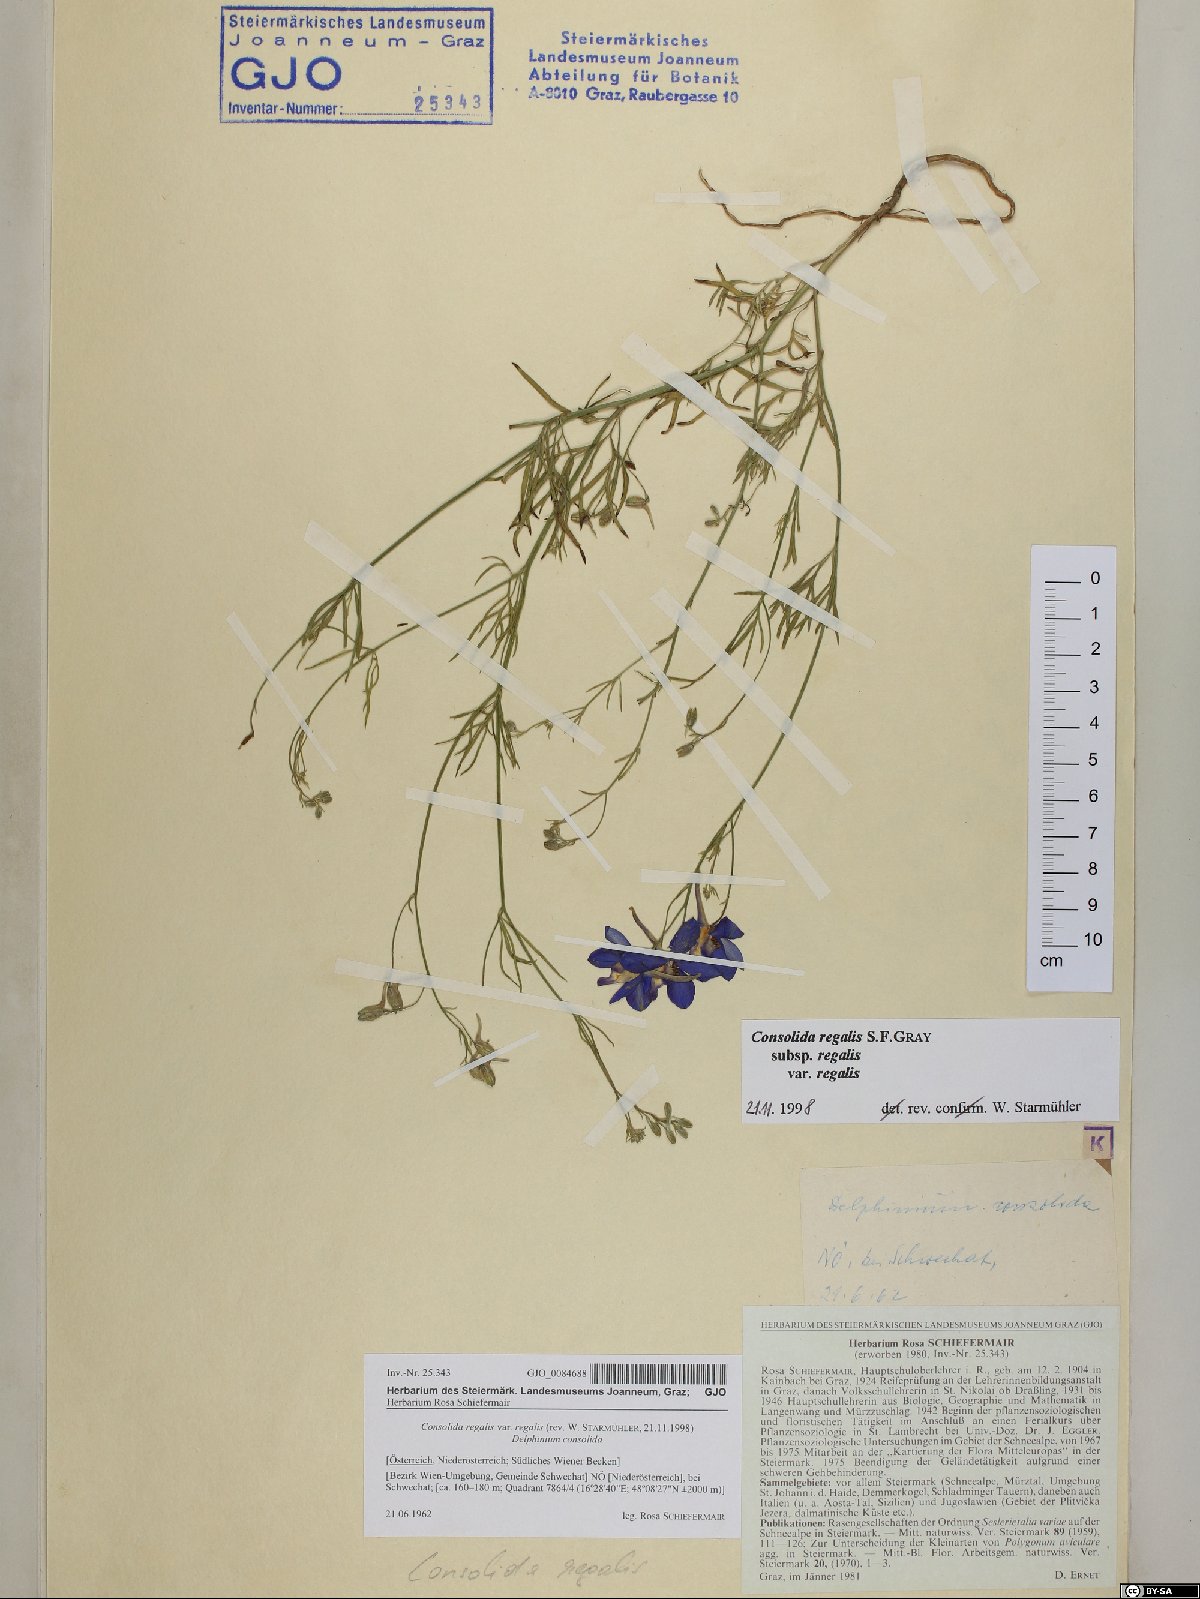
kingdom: Plantae
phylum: Tracheophyta
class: Magnoliopsida
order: Ranunculales
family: Ranunculaceae
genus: Delphinium
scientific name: Delphinium consolida
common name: Branching larkspur
